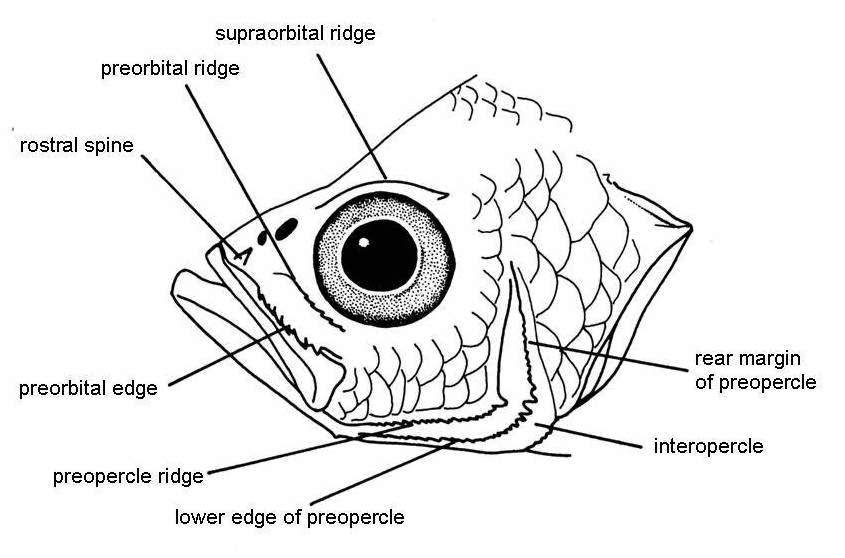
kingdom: Animalia
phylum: Chordata
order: Perciformes
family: Ambassidae
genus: Ambassis
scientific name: Ambassis ambassis
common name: Commerson's glassy perchlet
